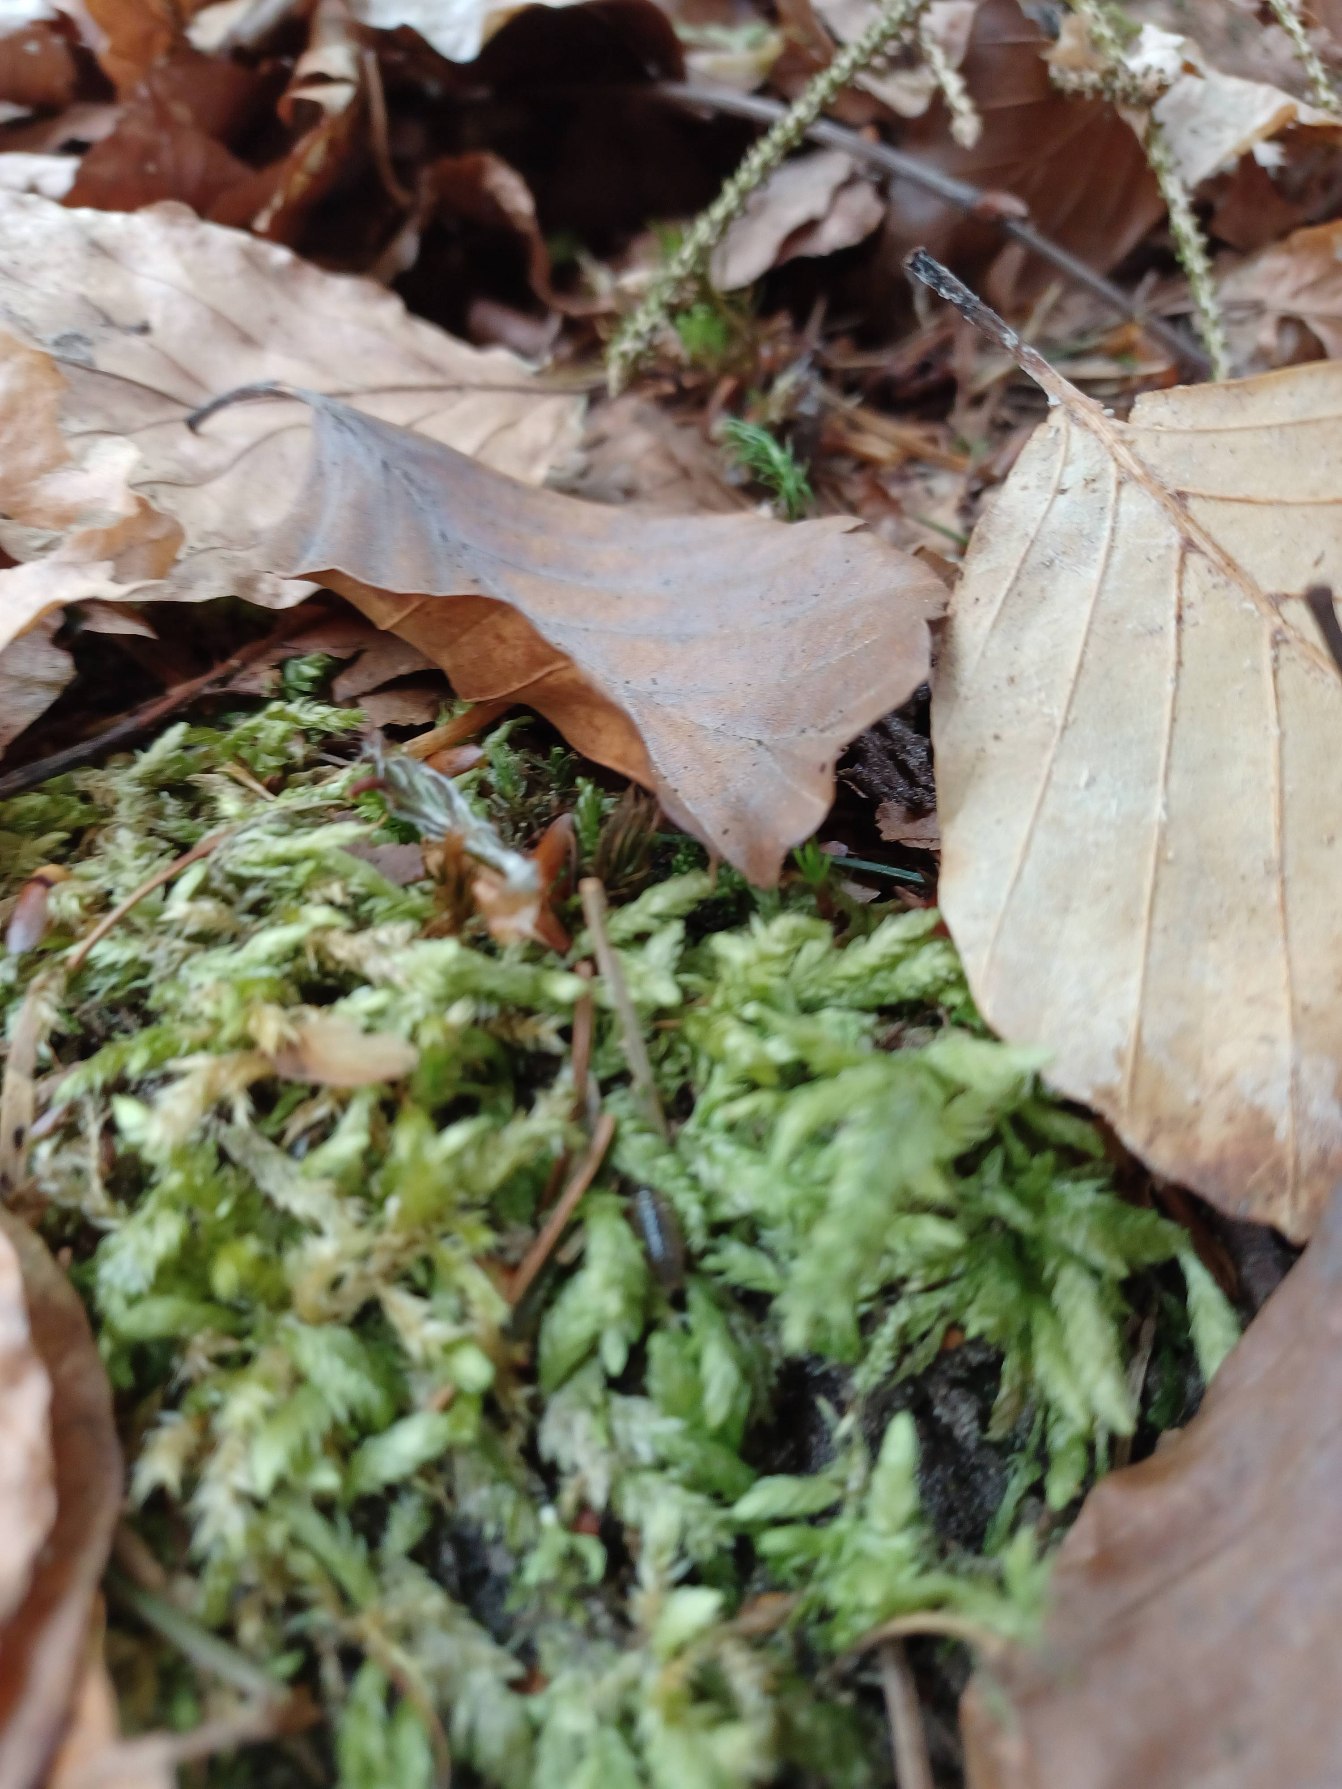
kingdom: Plantae
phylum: Bryophyta
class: Bryopsida
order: Hypnales
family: Plagiotheciaceae
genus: Plagiothecium
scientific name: Plagiothecium undulatum
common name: Bølget tæppemos
